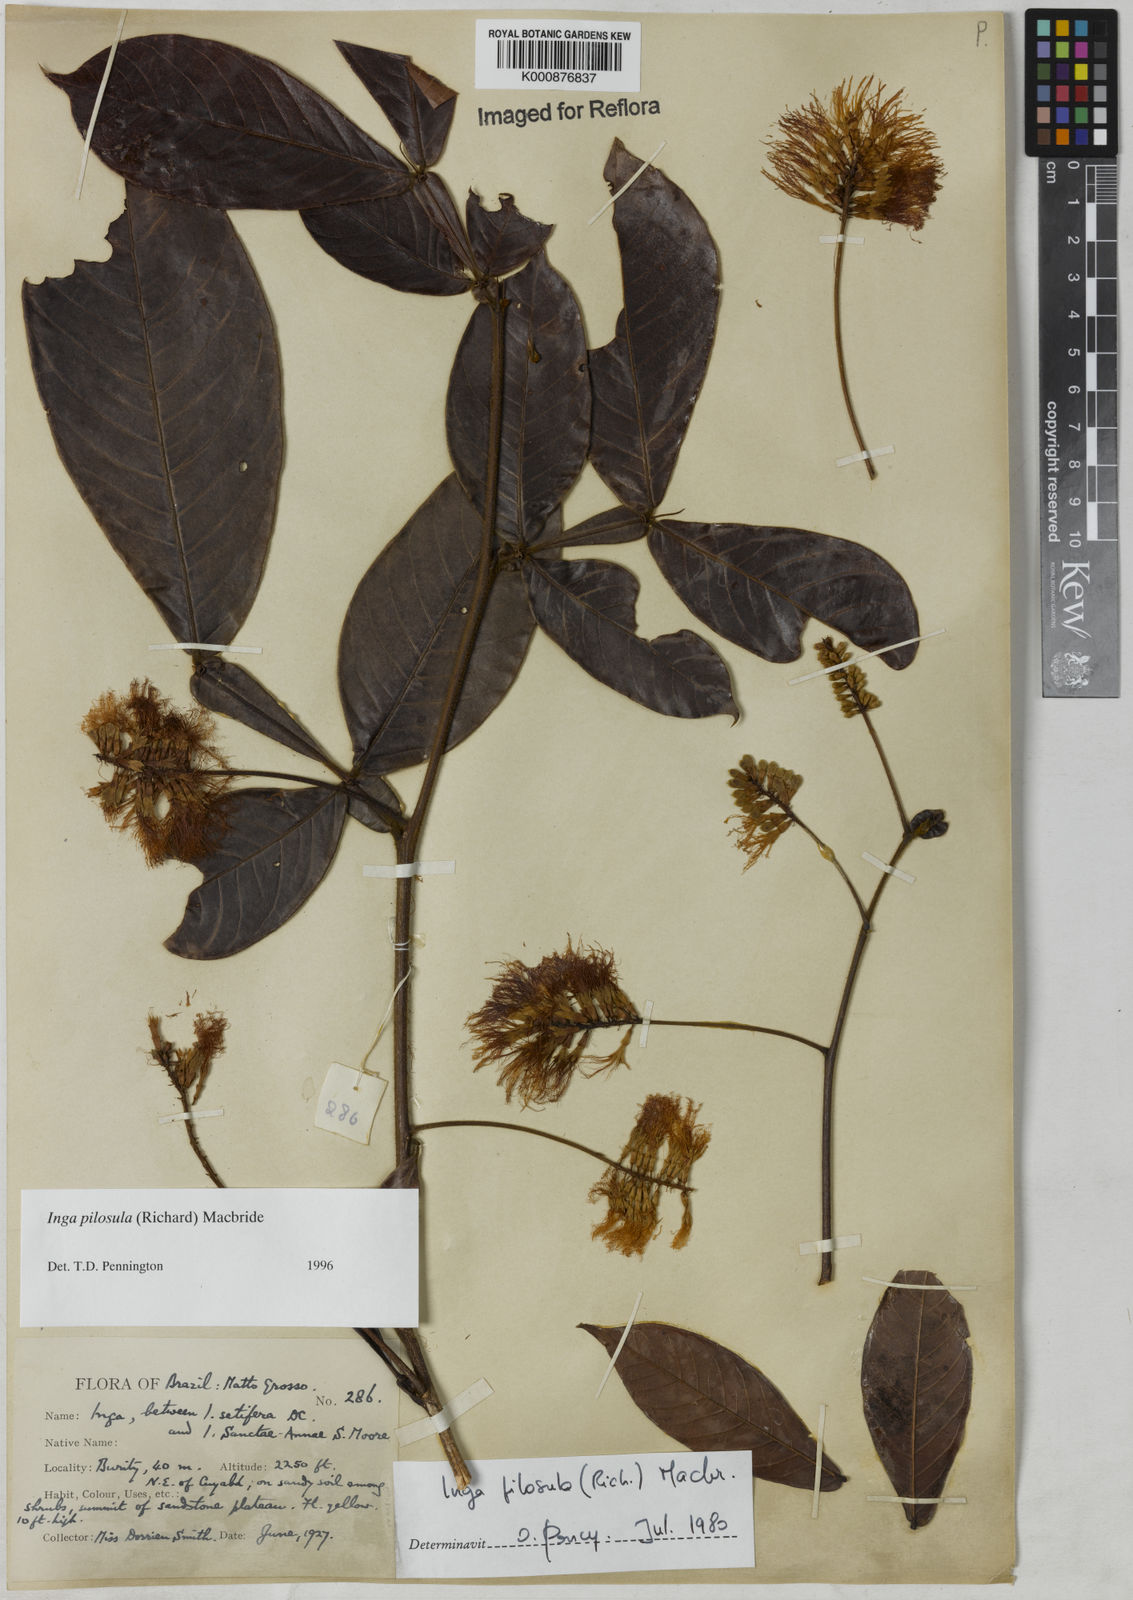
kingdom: Plantae
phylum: Tracheophyta
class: Magnoliopsida
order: Fabales
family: Fabaceae
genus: Inga
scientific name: Inga pilosula
